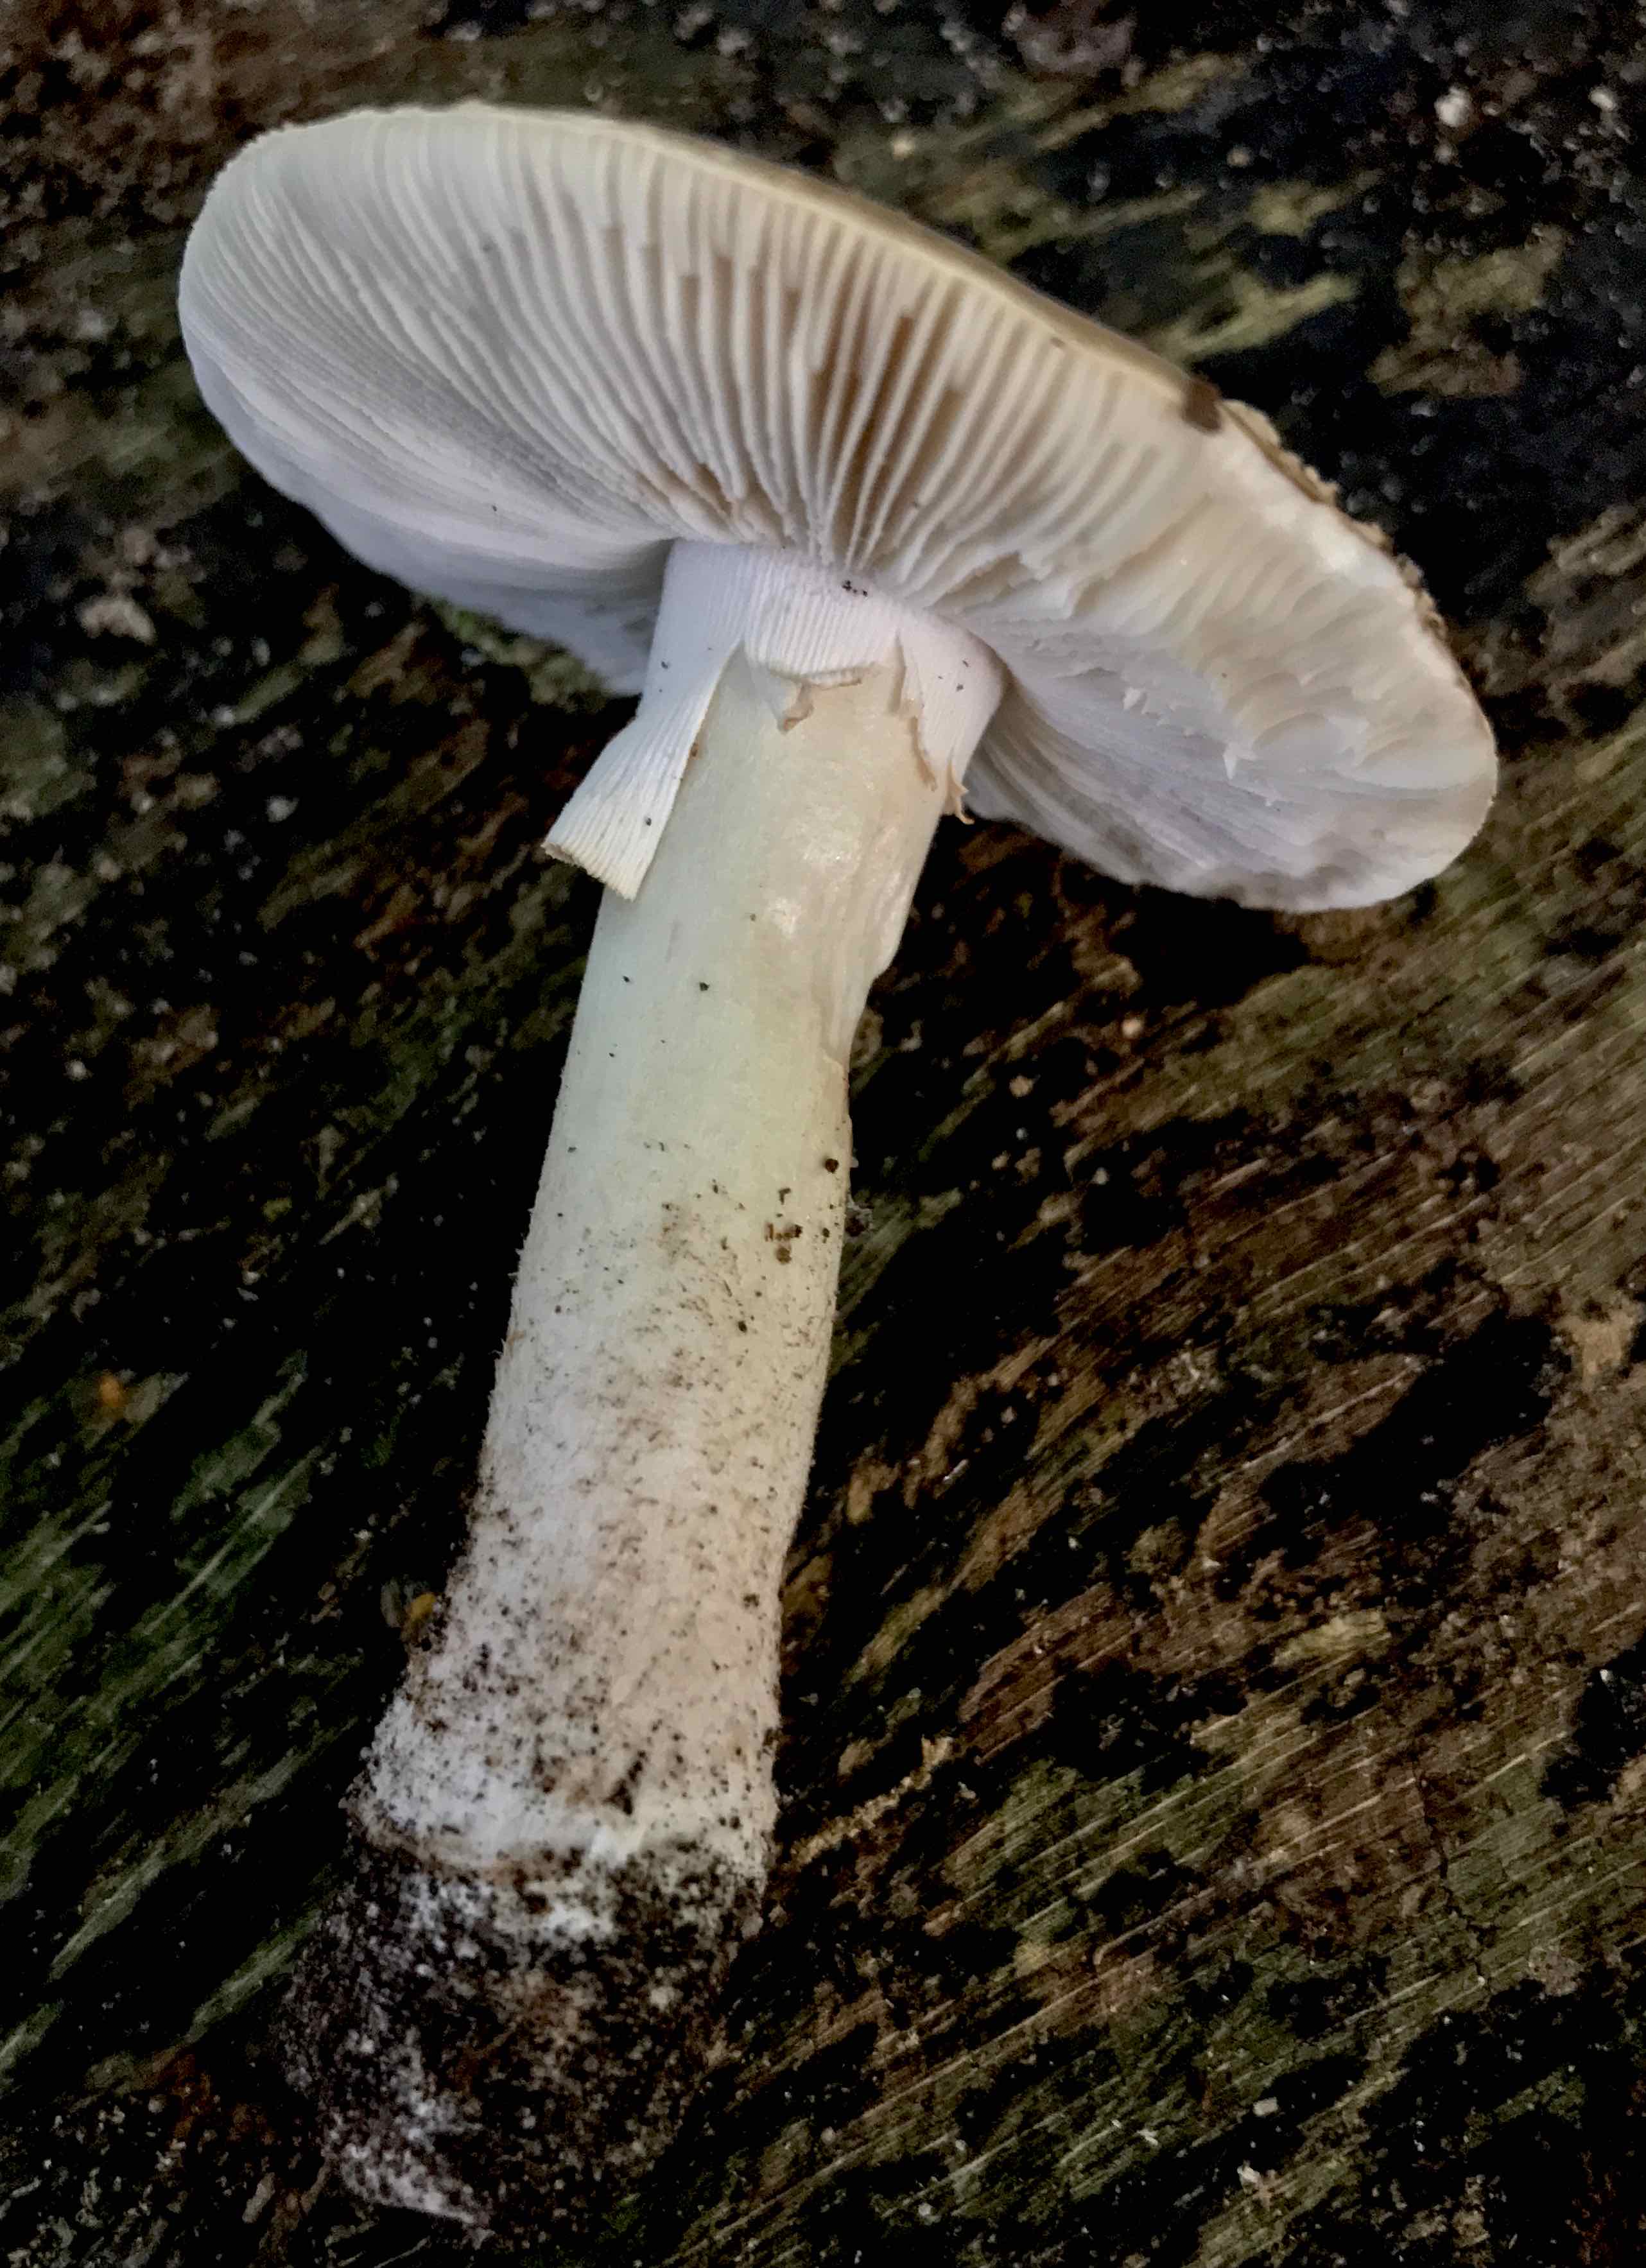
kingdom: Fungi
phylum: Basidiomycota
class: Agaricomycetes
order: Agaricales
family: Amanitaceae
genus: Amanita
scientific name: Amanita
